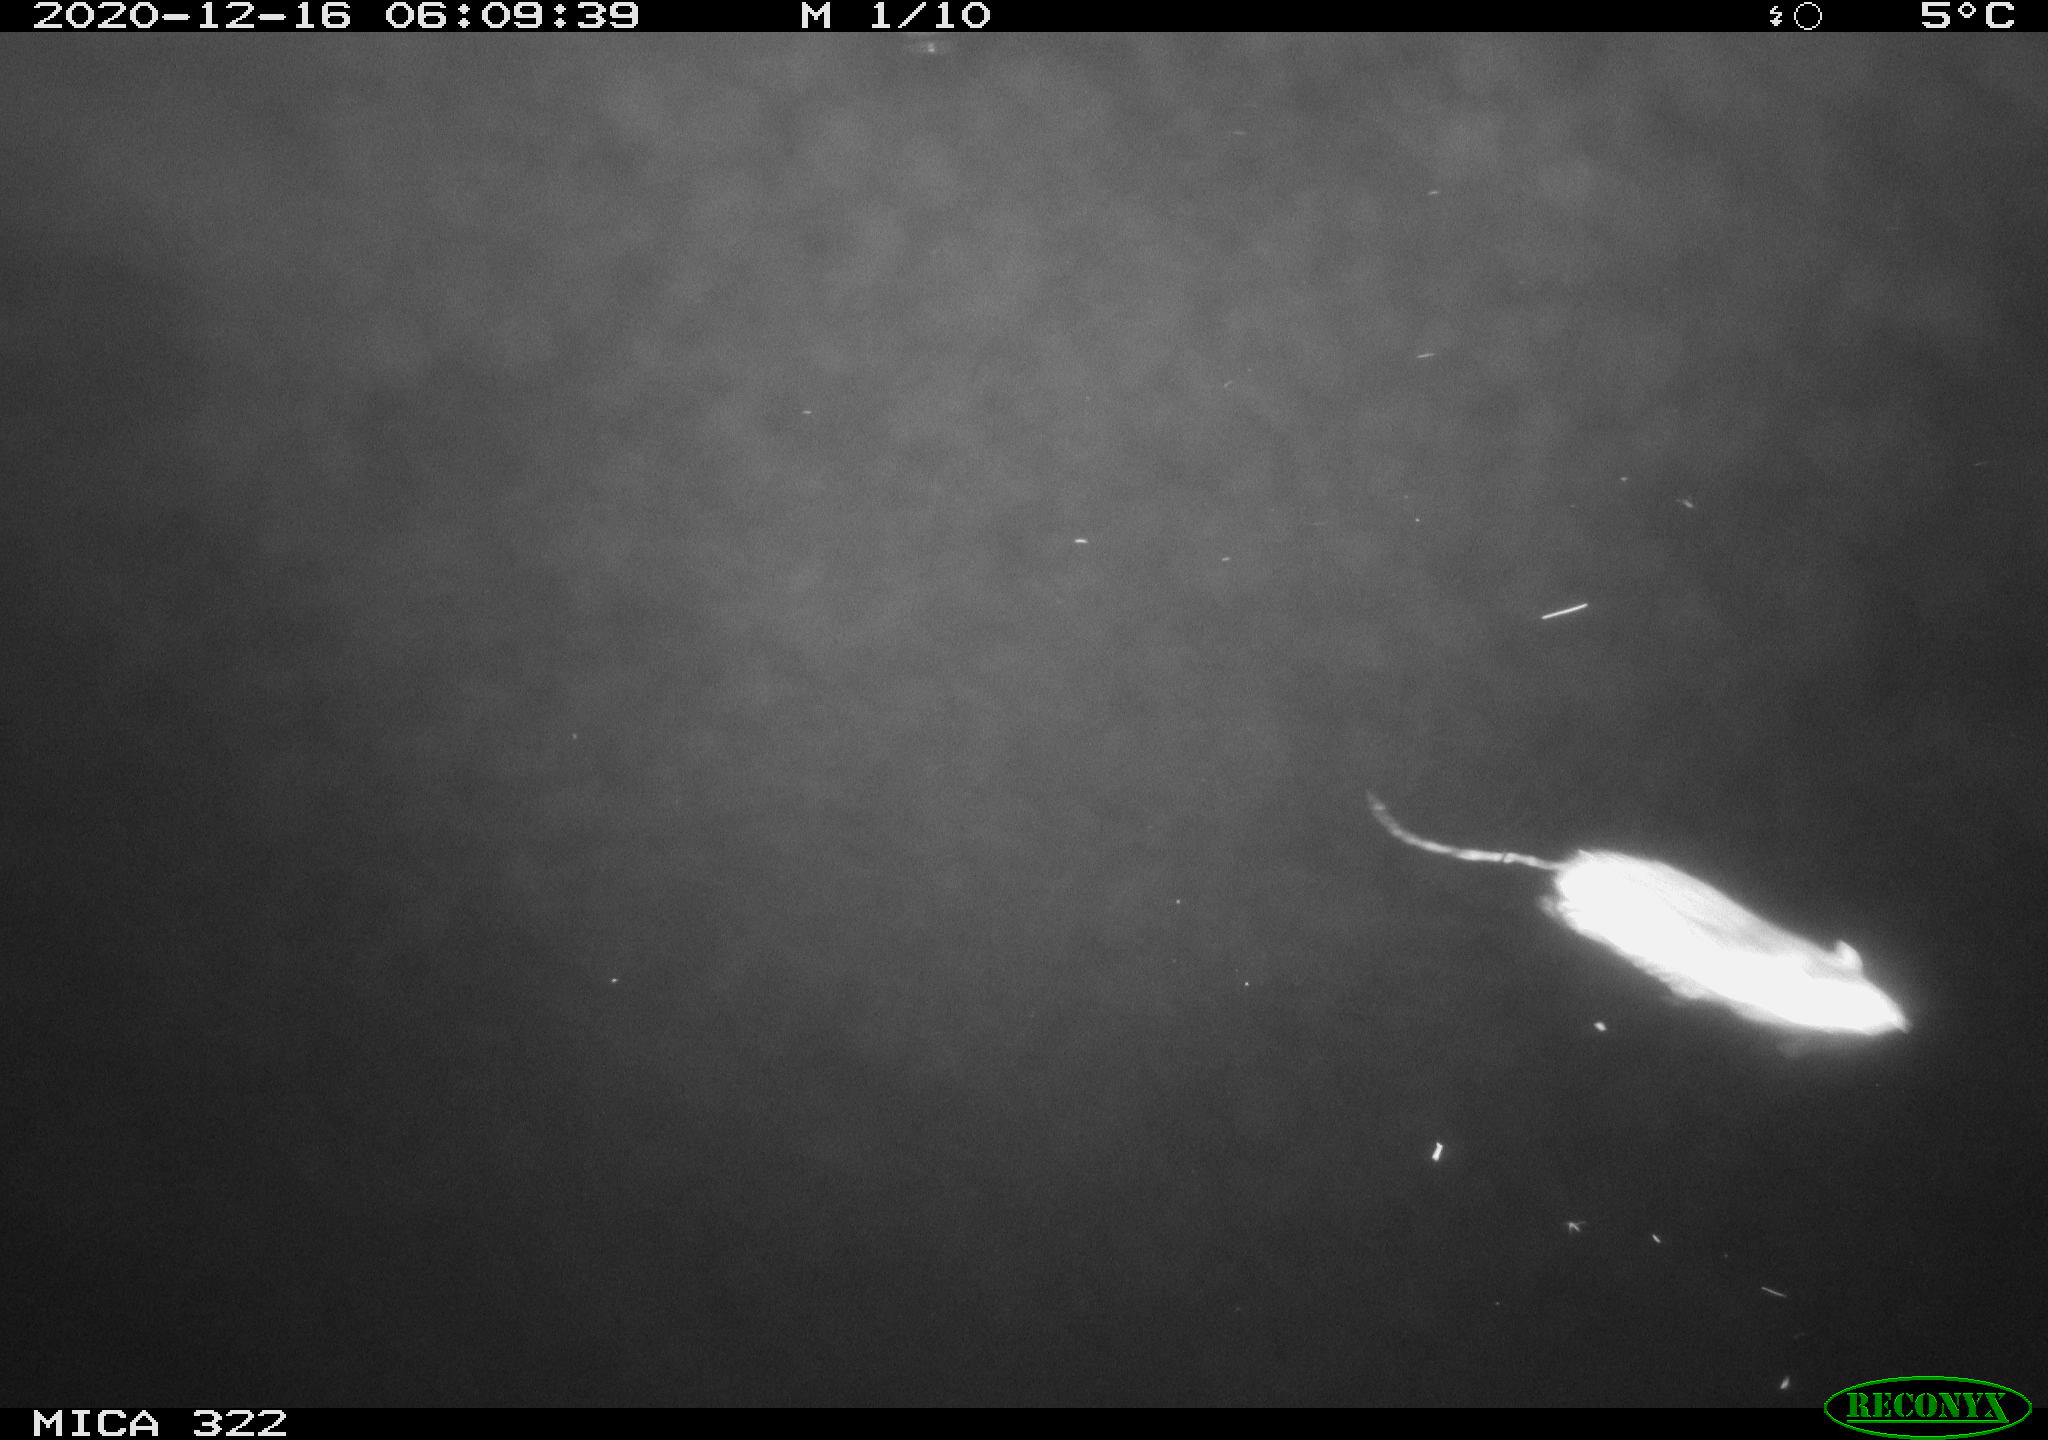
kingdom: Animalia
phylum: Chordata
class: Mammalia
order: Rodentia
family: Muridae
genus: Rattus
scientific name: Rattus norvegicus
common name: Brown rat
